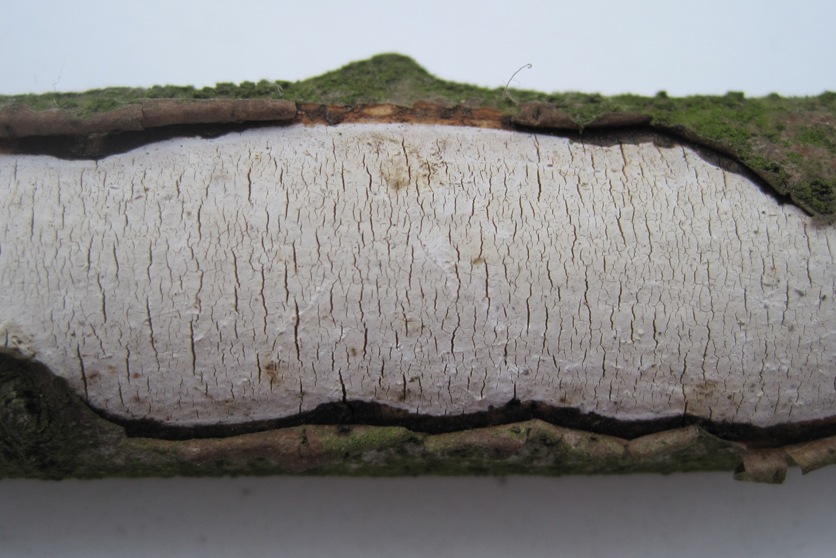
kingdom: Fungi
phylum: Basidiomycota
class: Agaricomycetes
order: Russulales
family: Stereaceae
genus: Gloeocystidiellum
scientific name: Gloeocystidiellum porosum
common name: mælkehvid olieskind
